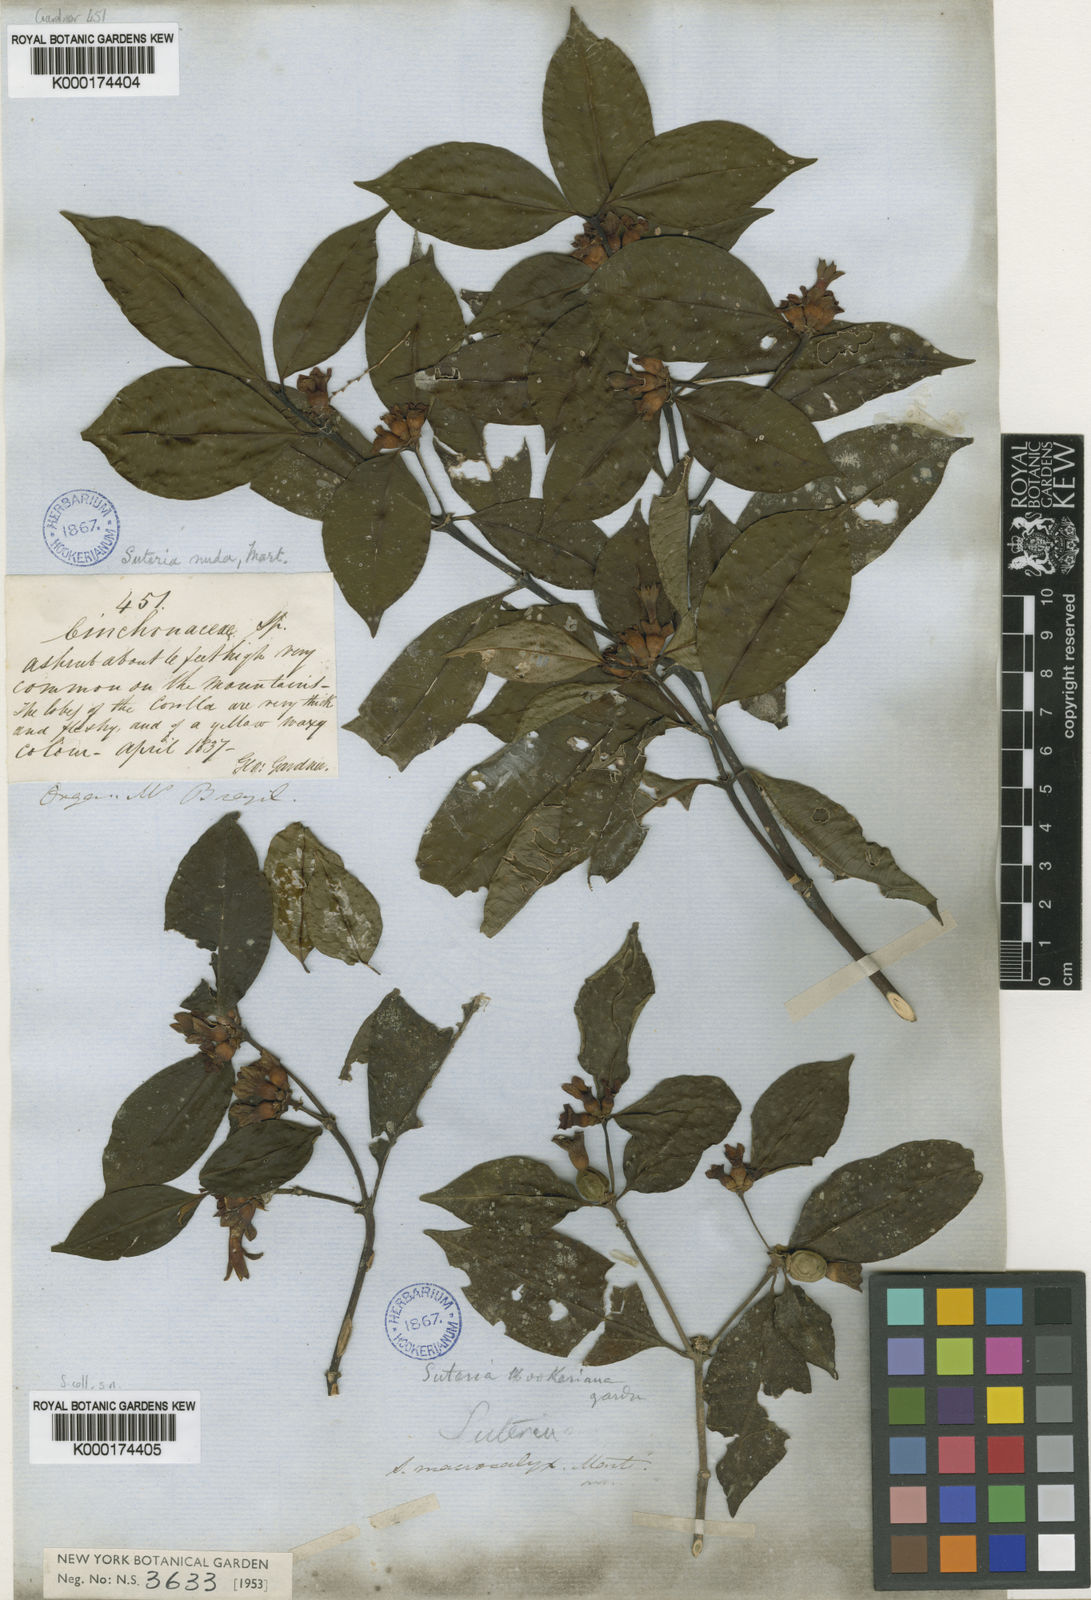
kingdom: Plantae
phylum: Tracheophyta
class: Magnoliopsida
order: Gentianales
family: Rubiaceae
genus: Psychotria
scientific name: Psychotria nuda
